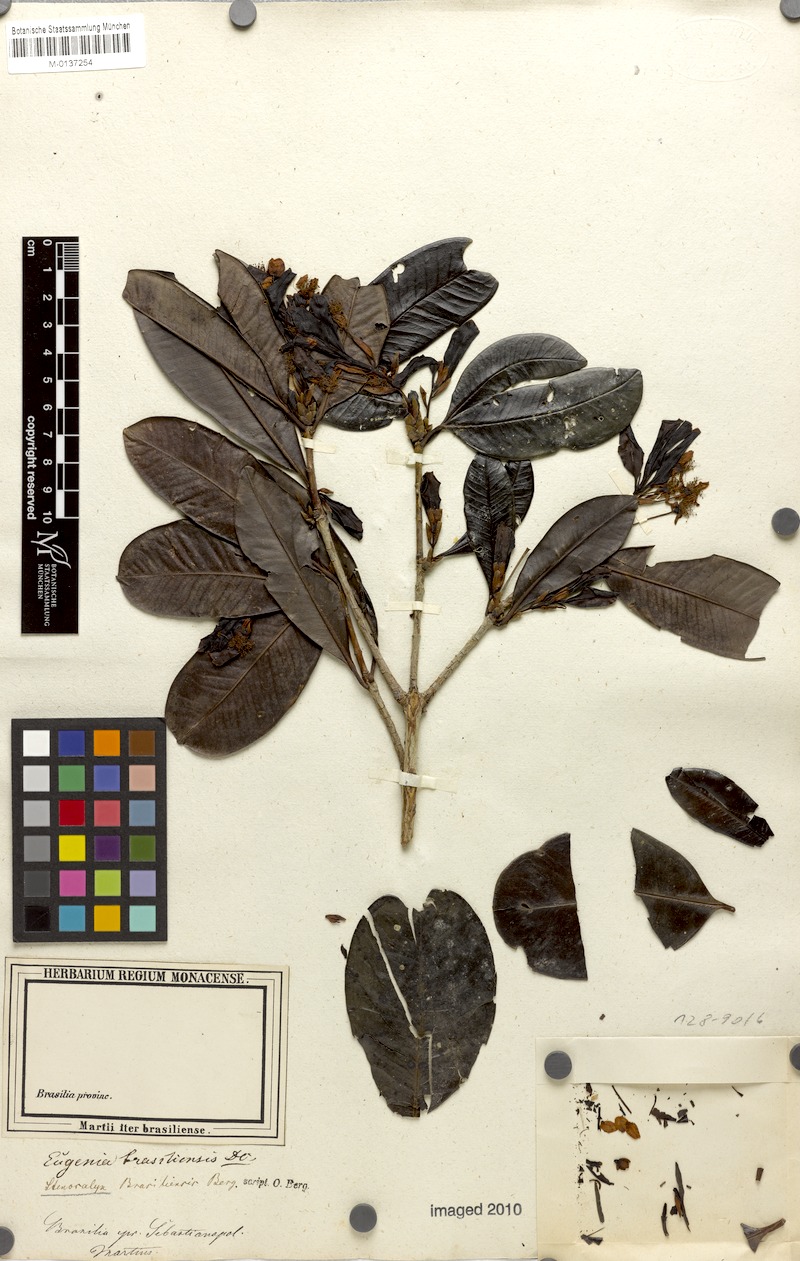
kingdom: Plantae
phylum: Tracheophyta
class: Magnoliopsida
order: Myrtales
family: Myrtaceae
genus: Eugenia
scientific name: Eugenia brasiliensis
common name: Grumichama
